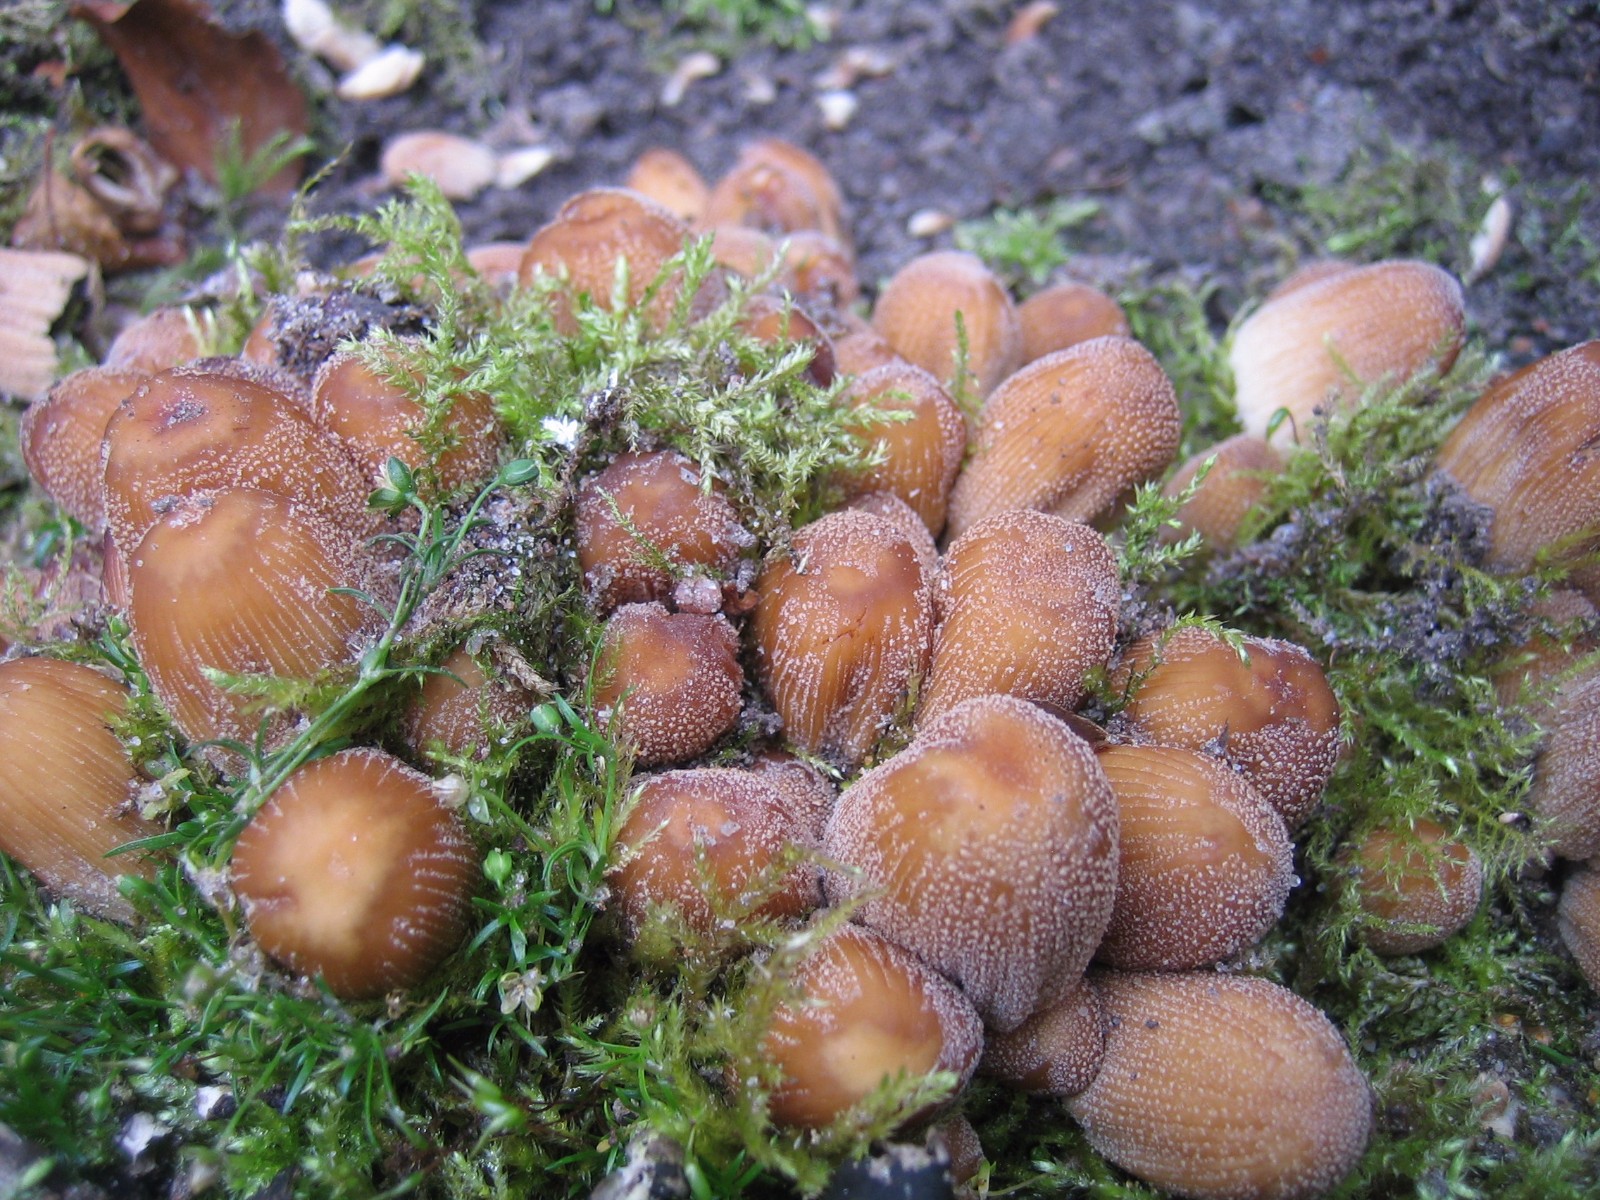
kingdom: Fungi
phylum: Basidiomycota
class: Agaricomycetes
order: Agaricales
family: Psathyrellaceae
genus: Coprinellus
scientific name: Coprinellus micaceus
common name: glimmer-blækhat
